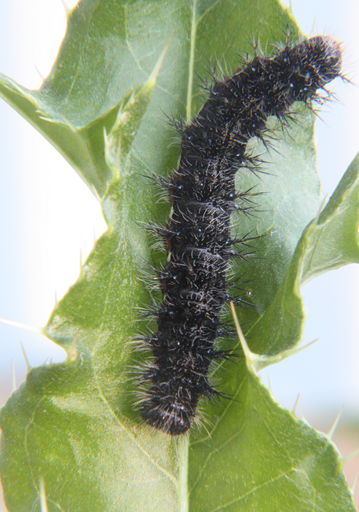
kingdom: Animalia
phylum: Arthropoda
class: Insecta
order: Lepidoptera
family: Nymphalidae
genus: Vanessa
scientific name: Vanessa cardui
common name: Painted Lady
